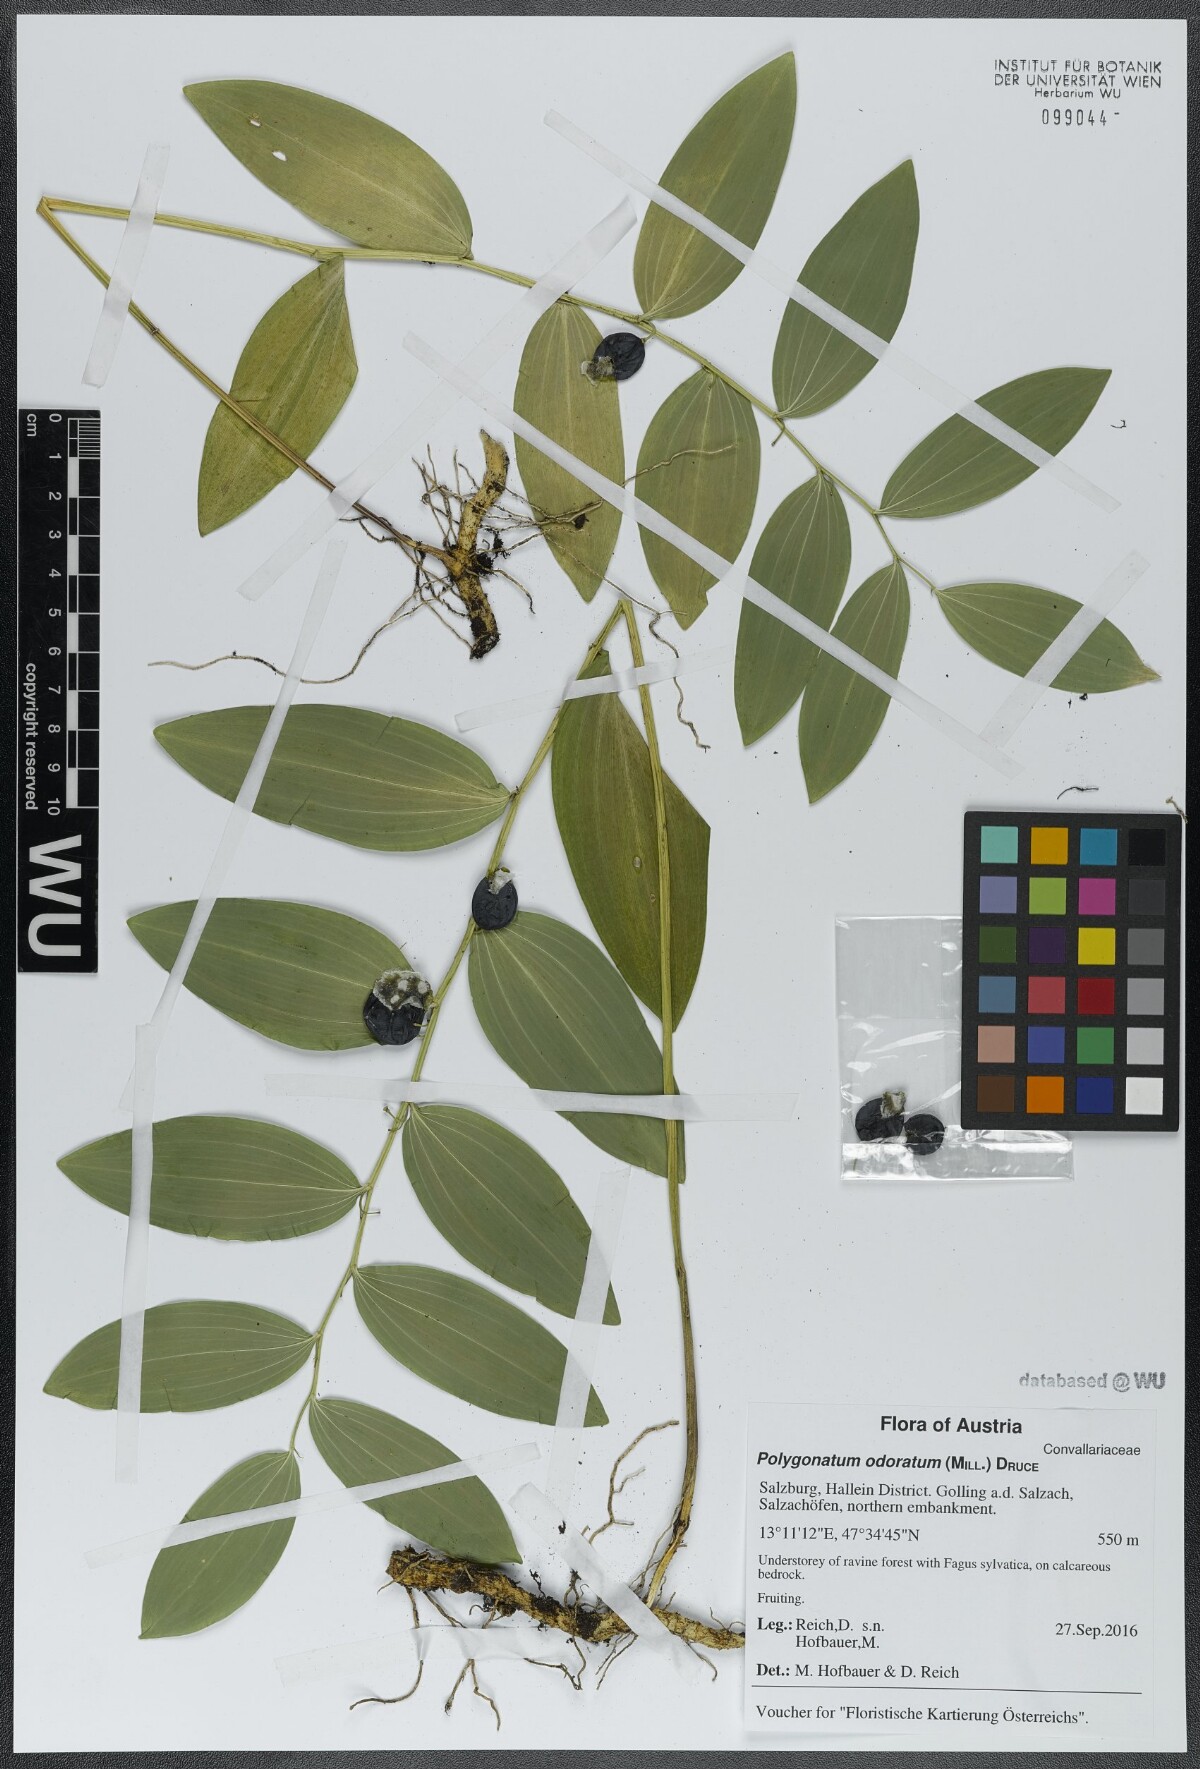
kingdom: Plantae
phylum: Tracheophyta
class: Liliopsida
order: Asparagales
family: Asparagaceae
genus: Polygonatum
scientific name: Polygonatum odoratum
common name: Angular solomon's-seal
